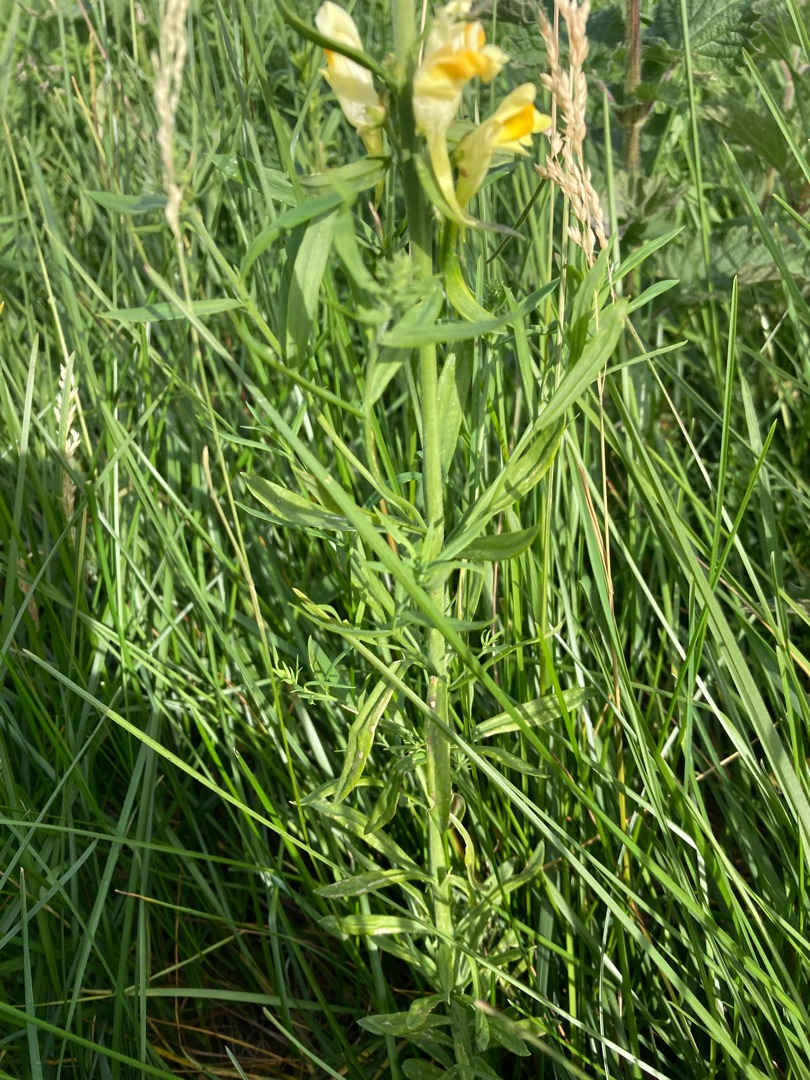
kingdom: Plantae
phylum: Tracheophyta
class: Magnoliopsida
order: Lamiales
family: Plantaginaceae
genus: Linaria
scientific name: Linaria vulgaris
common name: Almindelig torskemund
